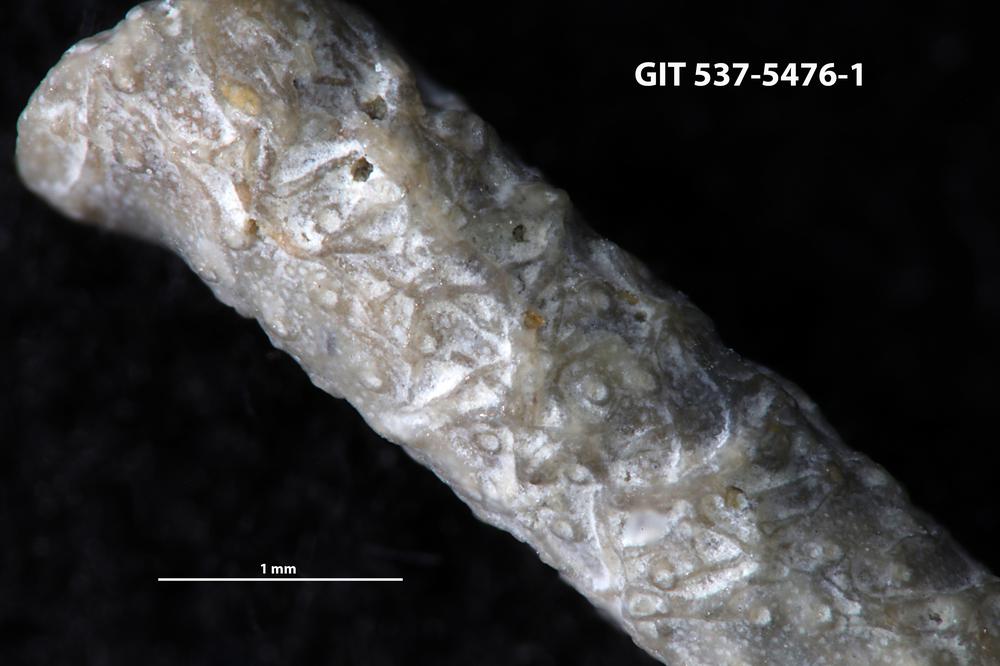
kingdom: Animalia
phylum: Bryozoa
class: Stenolaemata
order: Cyclostomatida
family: Corynotrypidae
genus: Corynotrypa
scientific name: Corynotrypa
